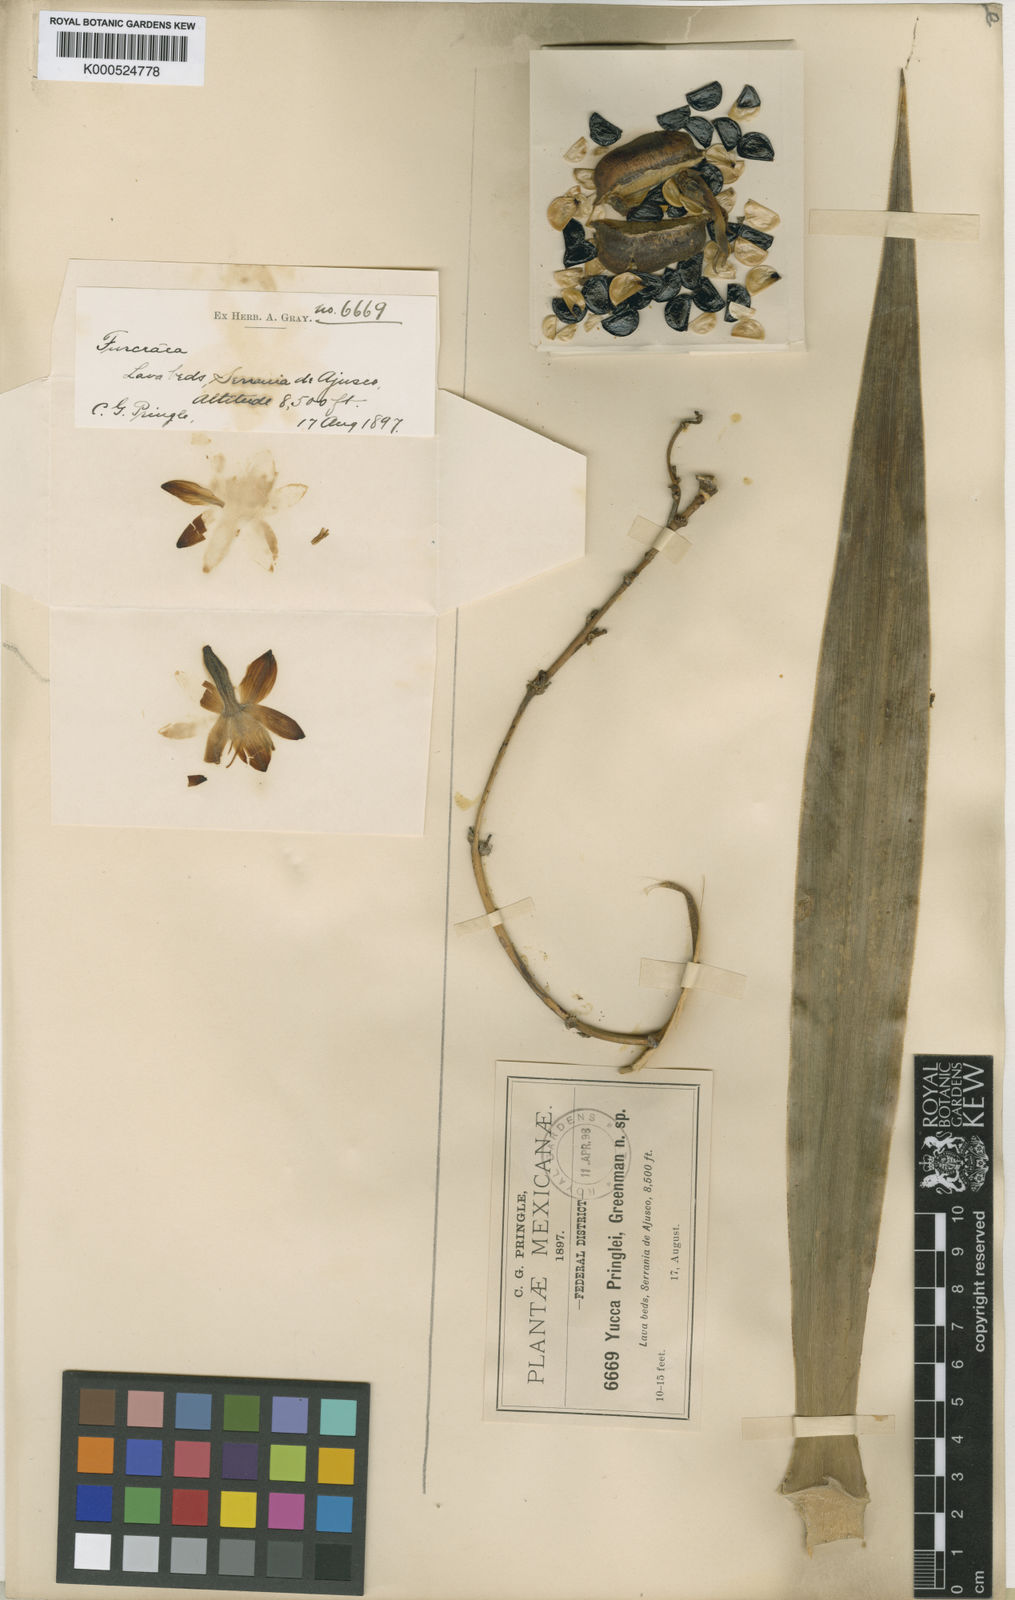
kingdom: Plantae
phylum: Tracheophyta
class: Liliopsida
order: Asparagales
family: Asparagaceae
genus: Furcraea
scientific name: Furcraea parmentieri
